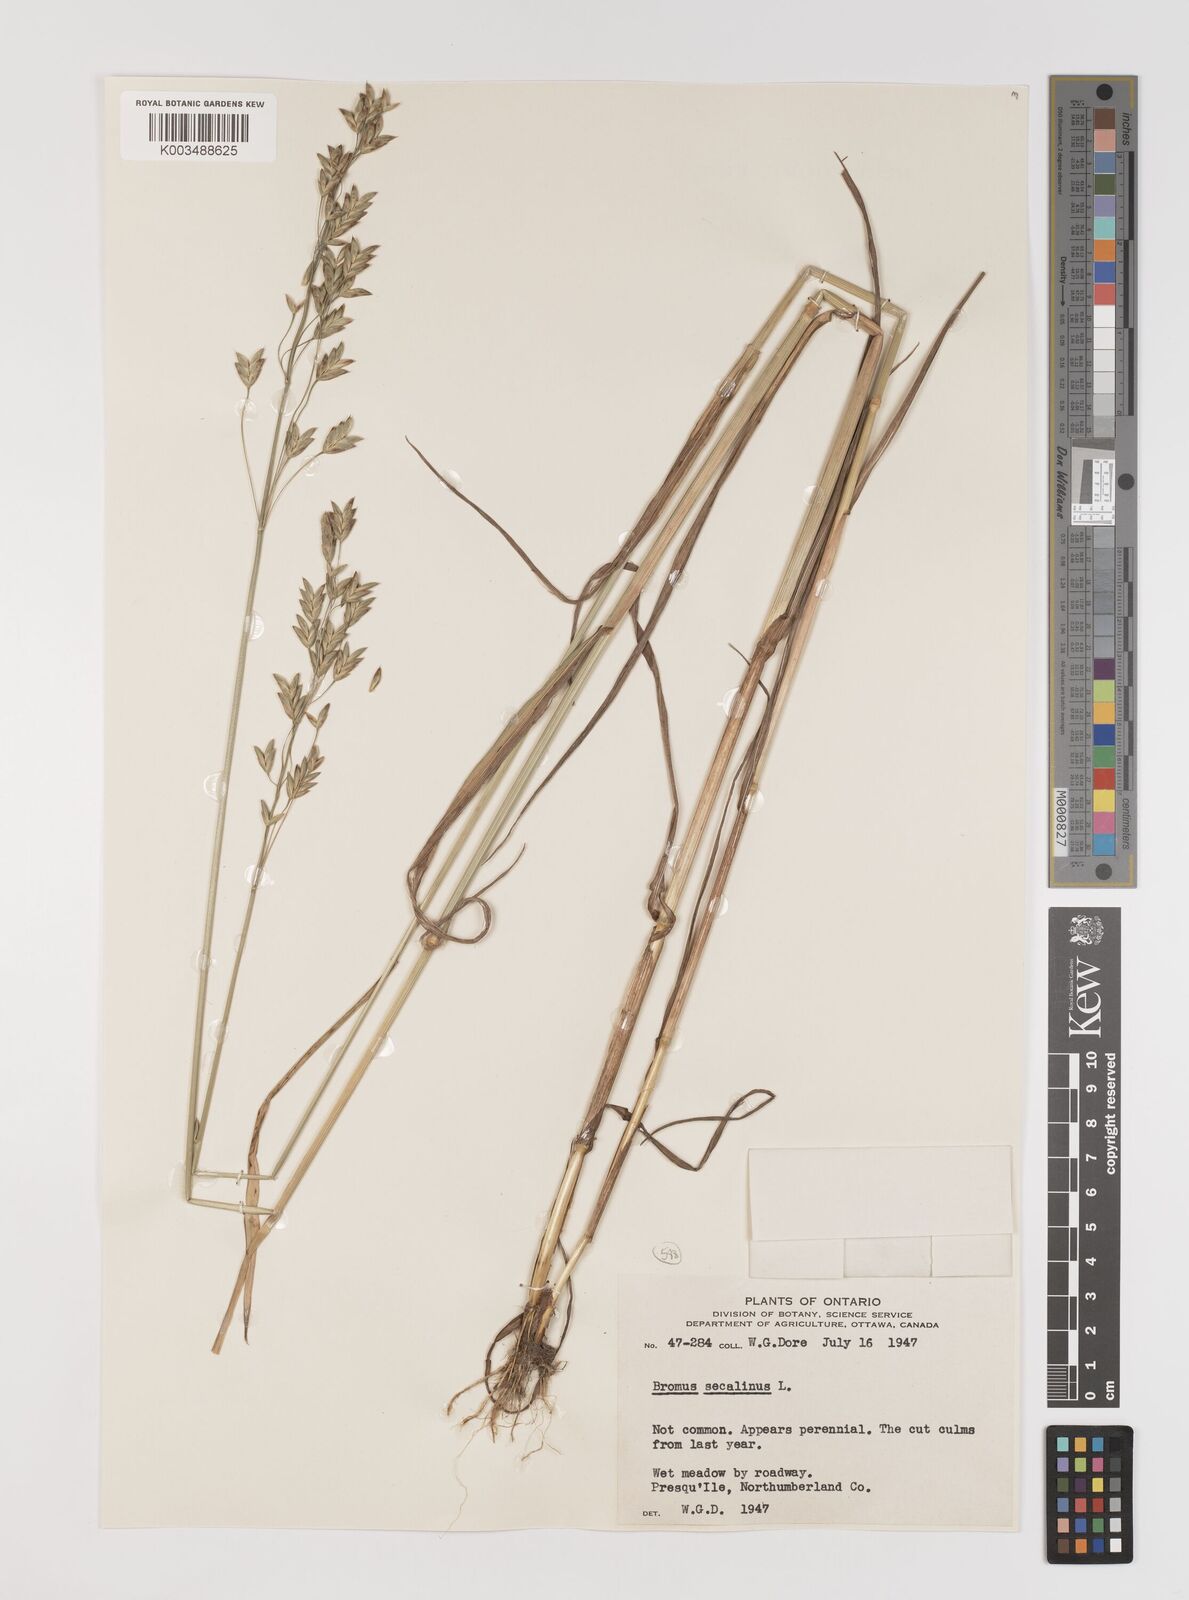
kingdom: Plantae
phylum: Tracheophyta
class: Liliopsida
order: Poales
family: Poaceae
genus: Bromus
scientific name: Bromus secalinus
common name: Rye brome
